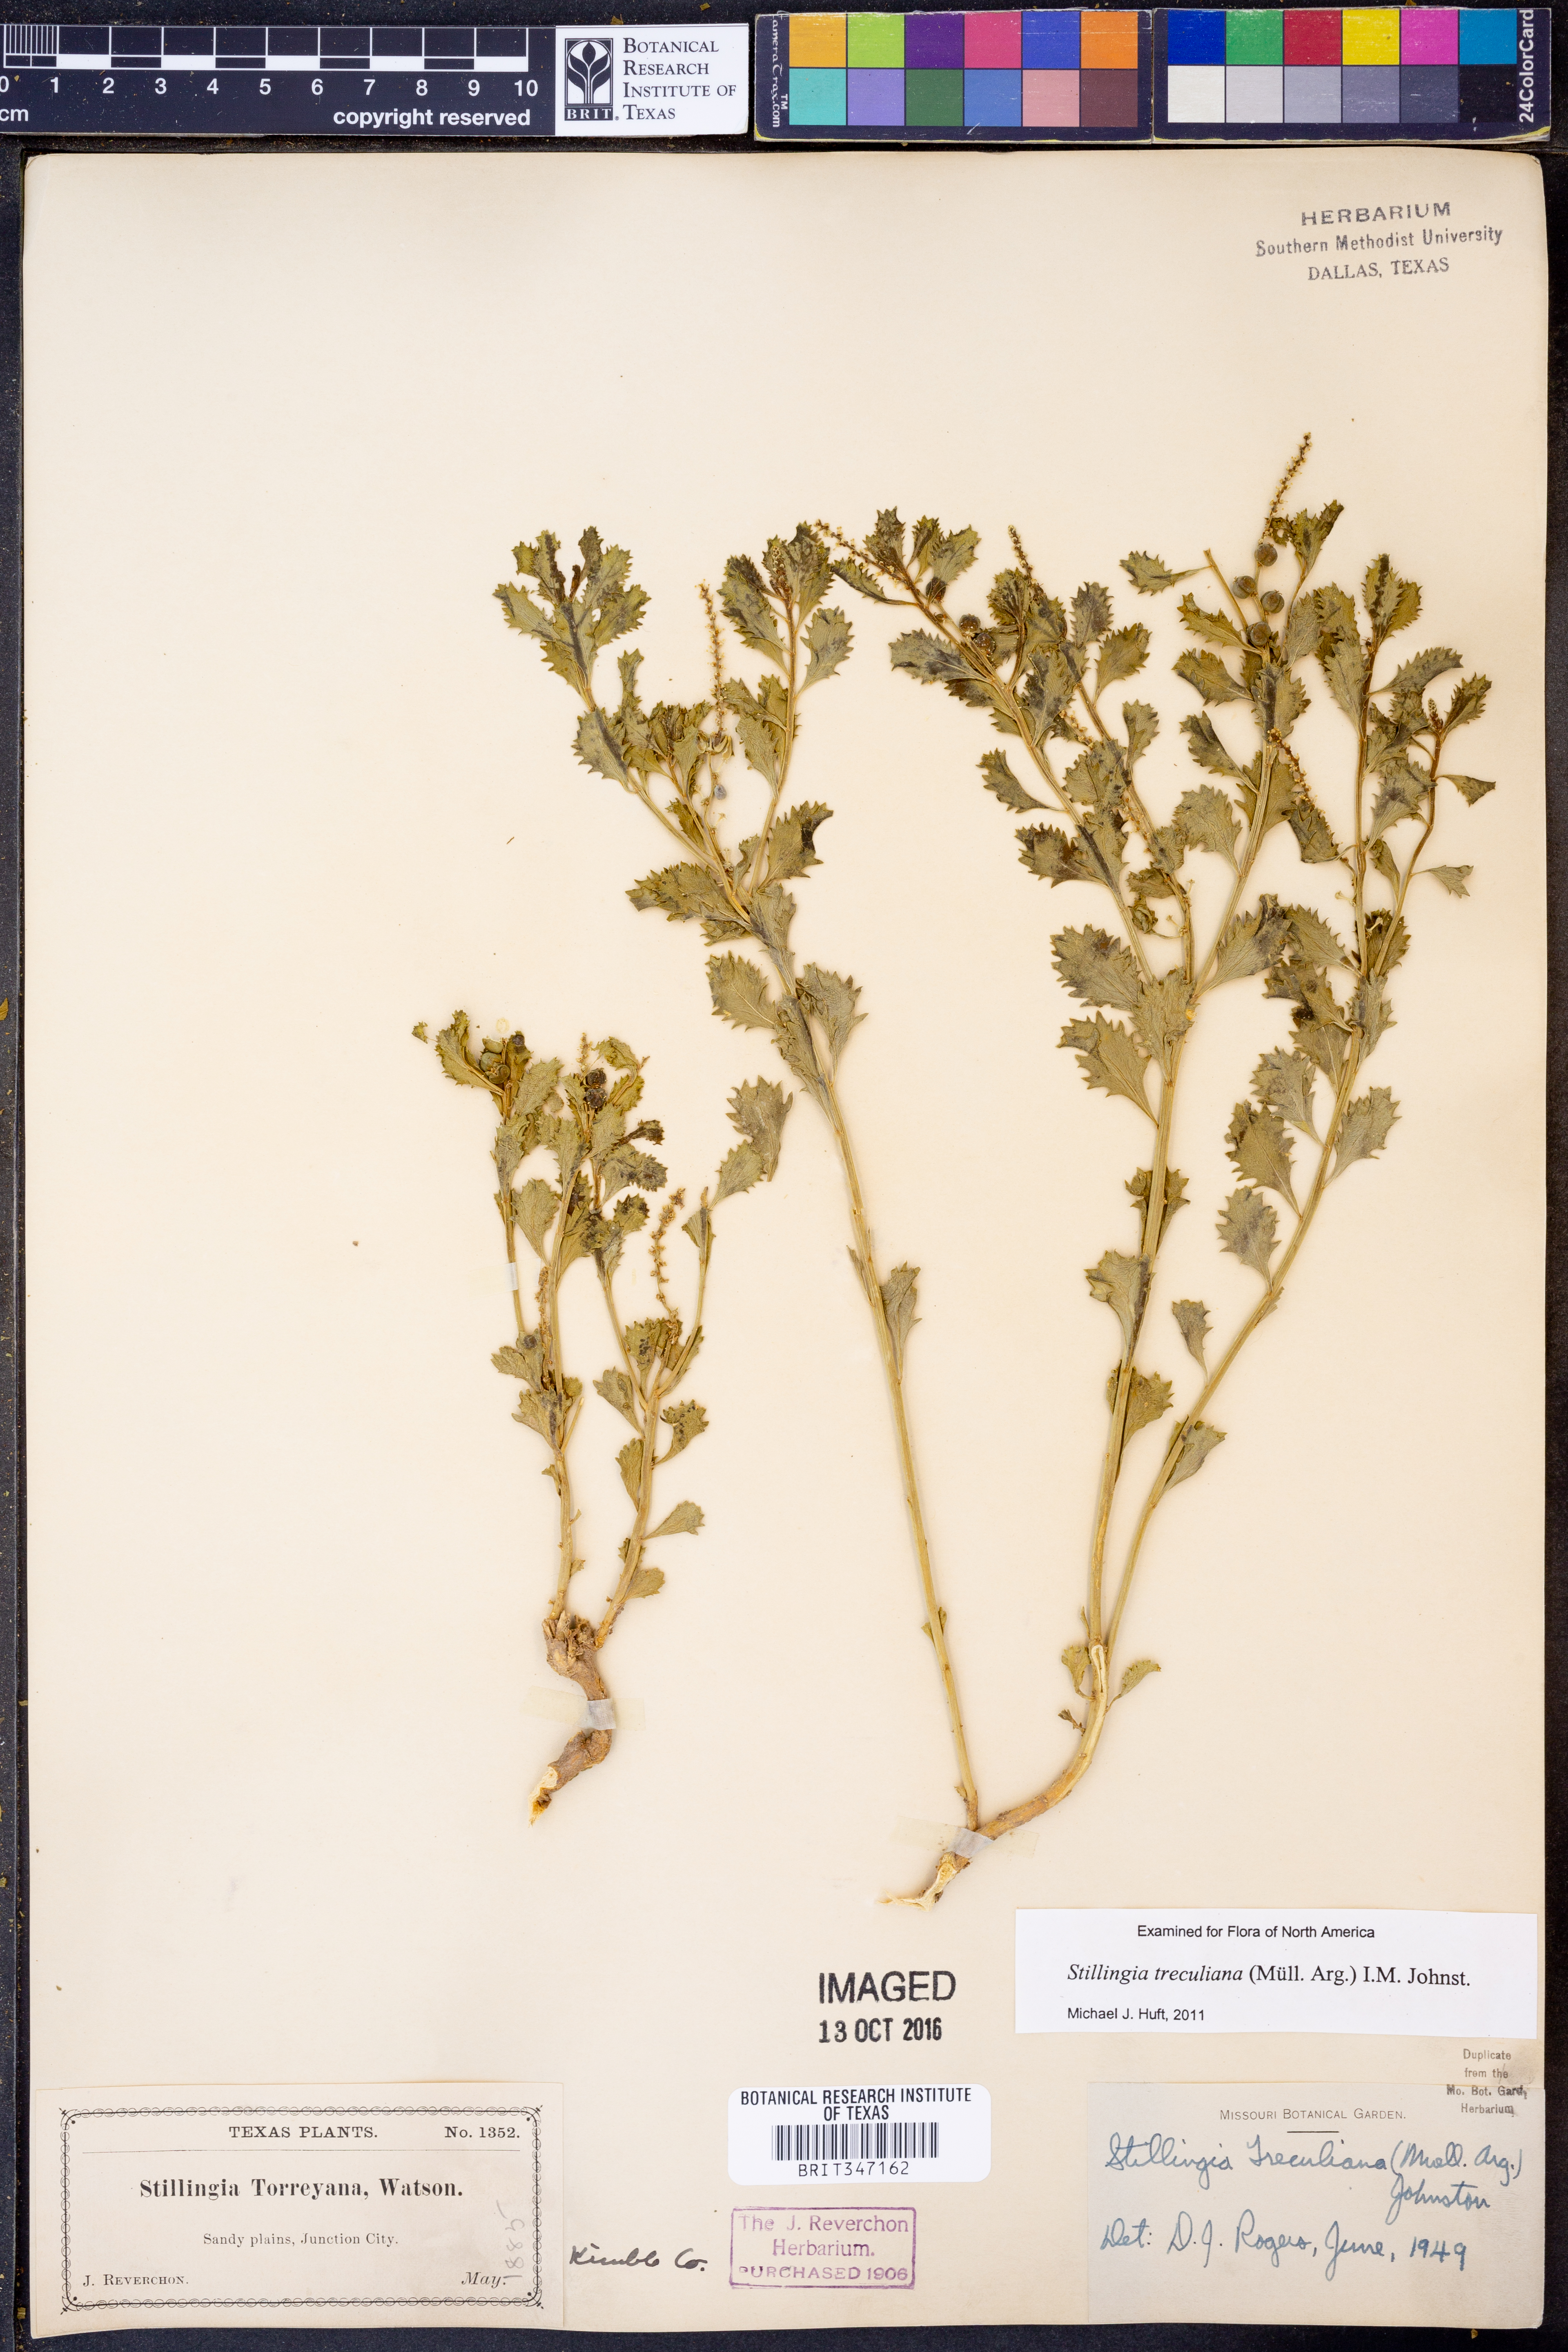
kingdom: Plantae
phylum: Tracheophyta
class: Magnoliopsida
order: Malpighiales
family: Euphorbiaceae
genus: Stillingia
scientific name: Stillingia treculiana
